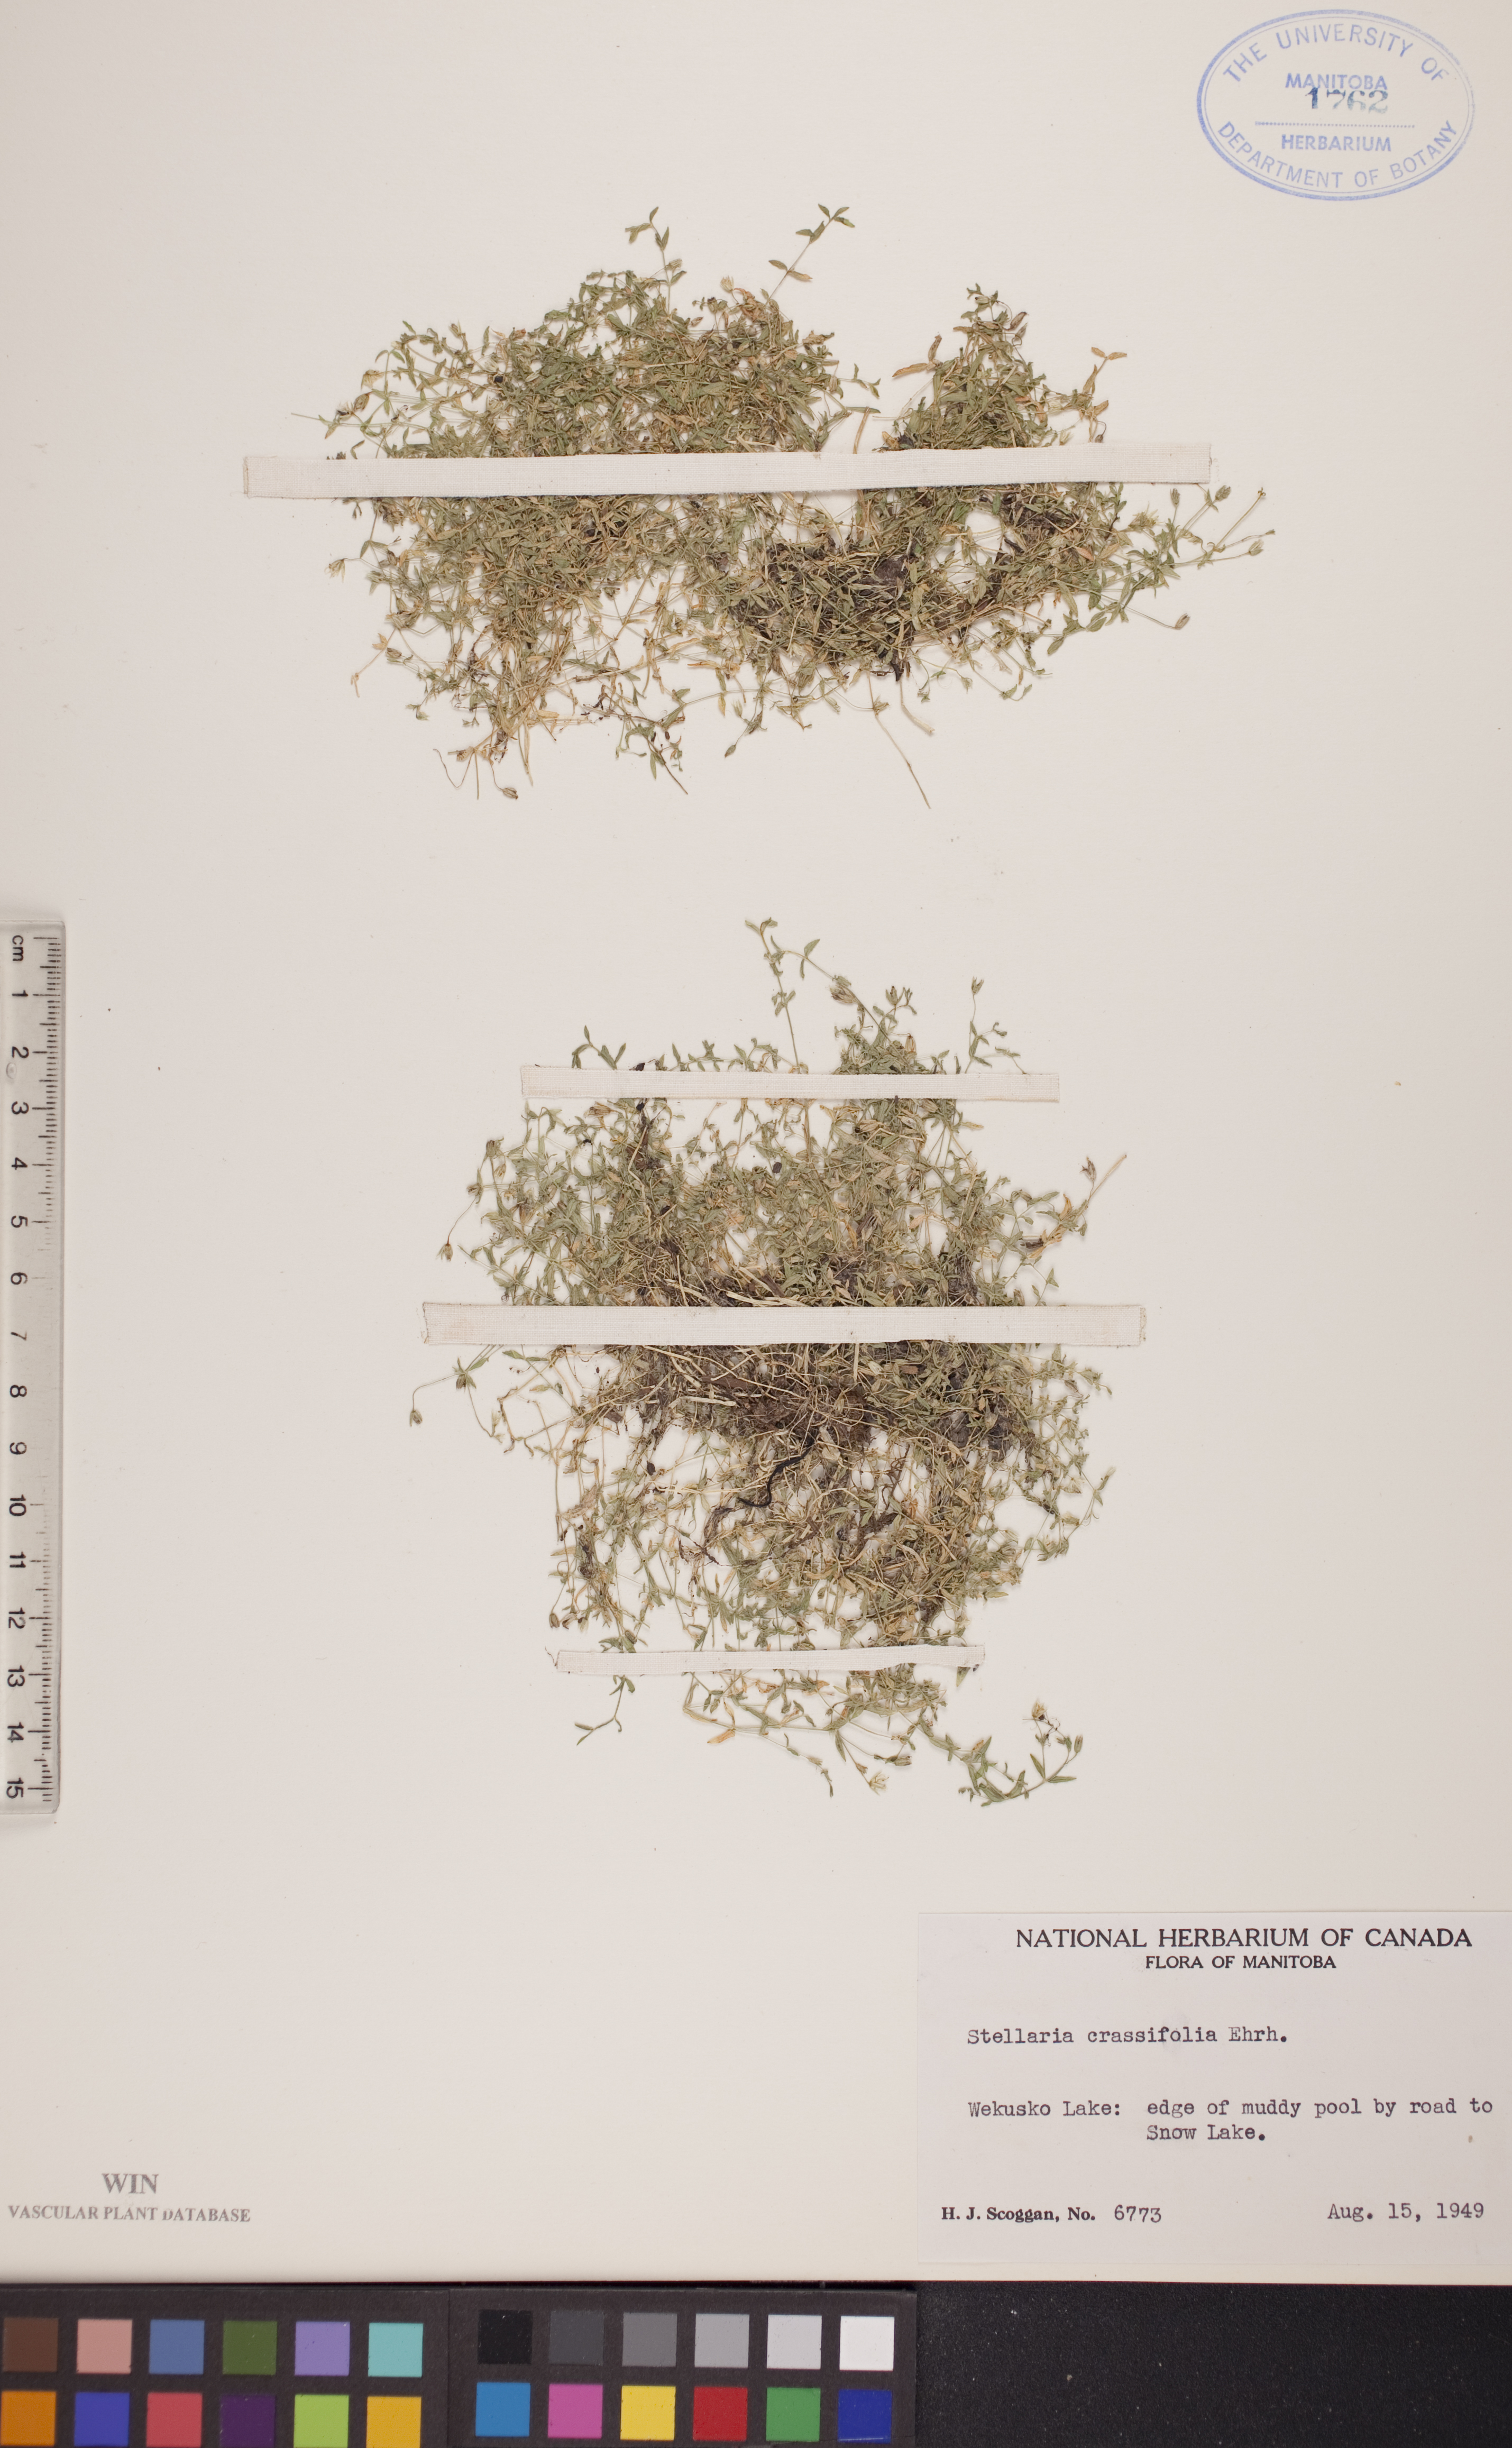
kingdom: Plantae
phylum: Tracheophyta
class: Magnoliopsida
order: Caryophyllales
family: Caryophyllaceae
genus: Stellaria
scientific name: Stellaria crassifolia
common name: Fleshy starwort
